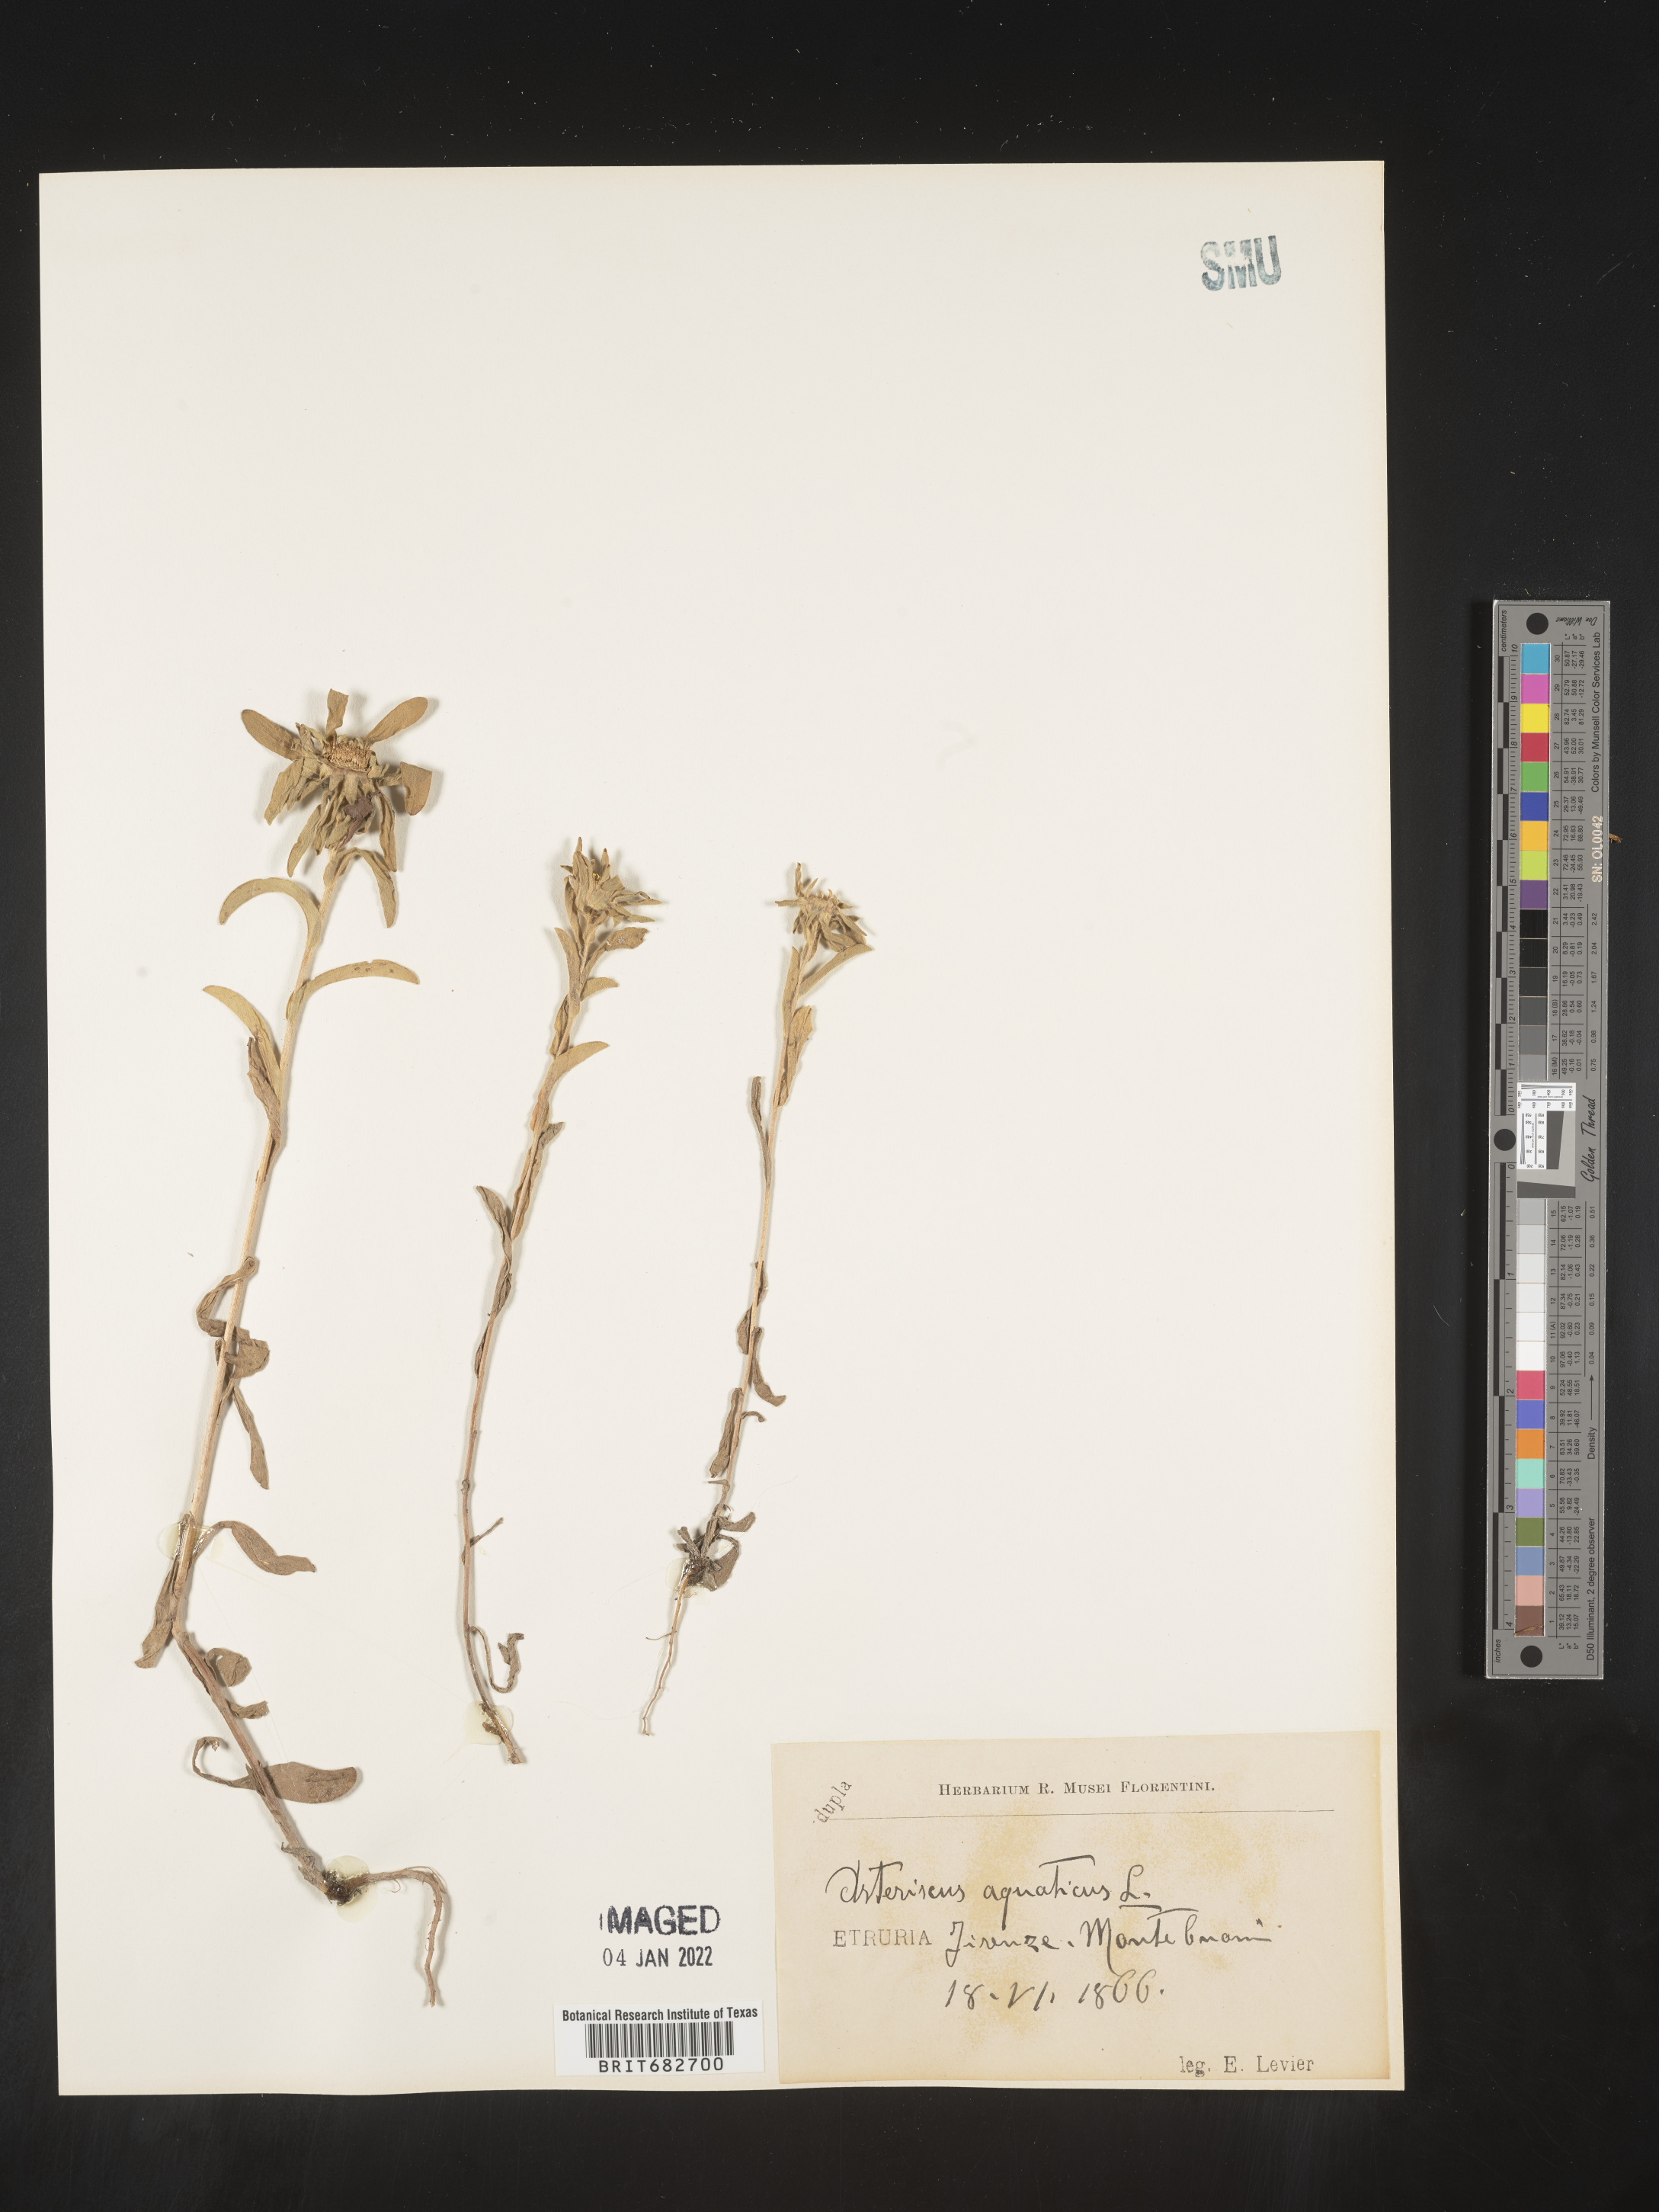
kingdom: Plantae
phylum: Tracheophyta
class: Magnoliopsida
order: Asterales
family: Asteraceae
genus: Asteriscus
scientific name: Asteriscus
